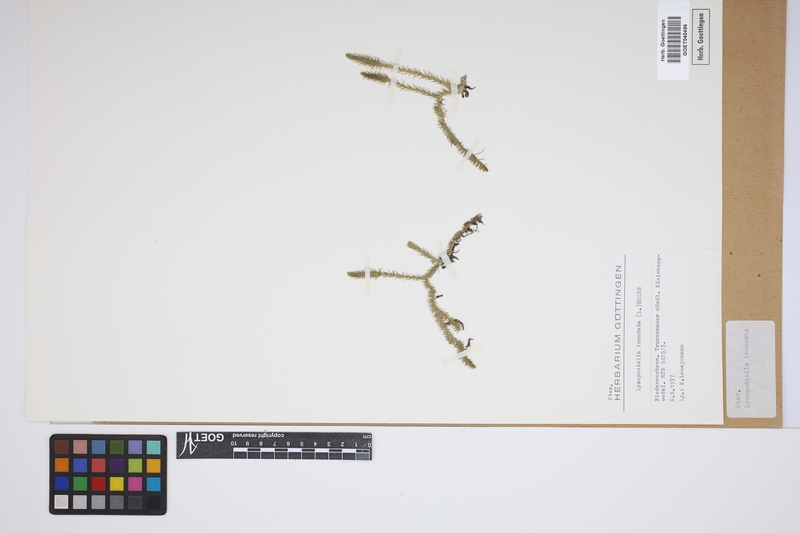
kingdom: Plantae
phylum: Tracheophyta
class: Lycopodiopsida
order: Lycopodiales
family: Lycopodiaceae
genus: Lycopodiella
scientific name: Lycopodiella inundata
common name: Marsh clubmoss
